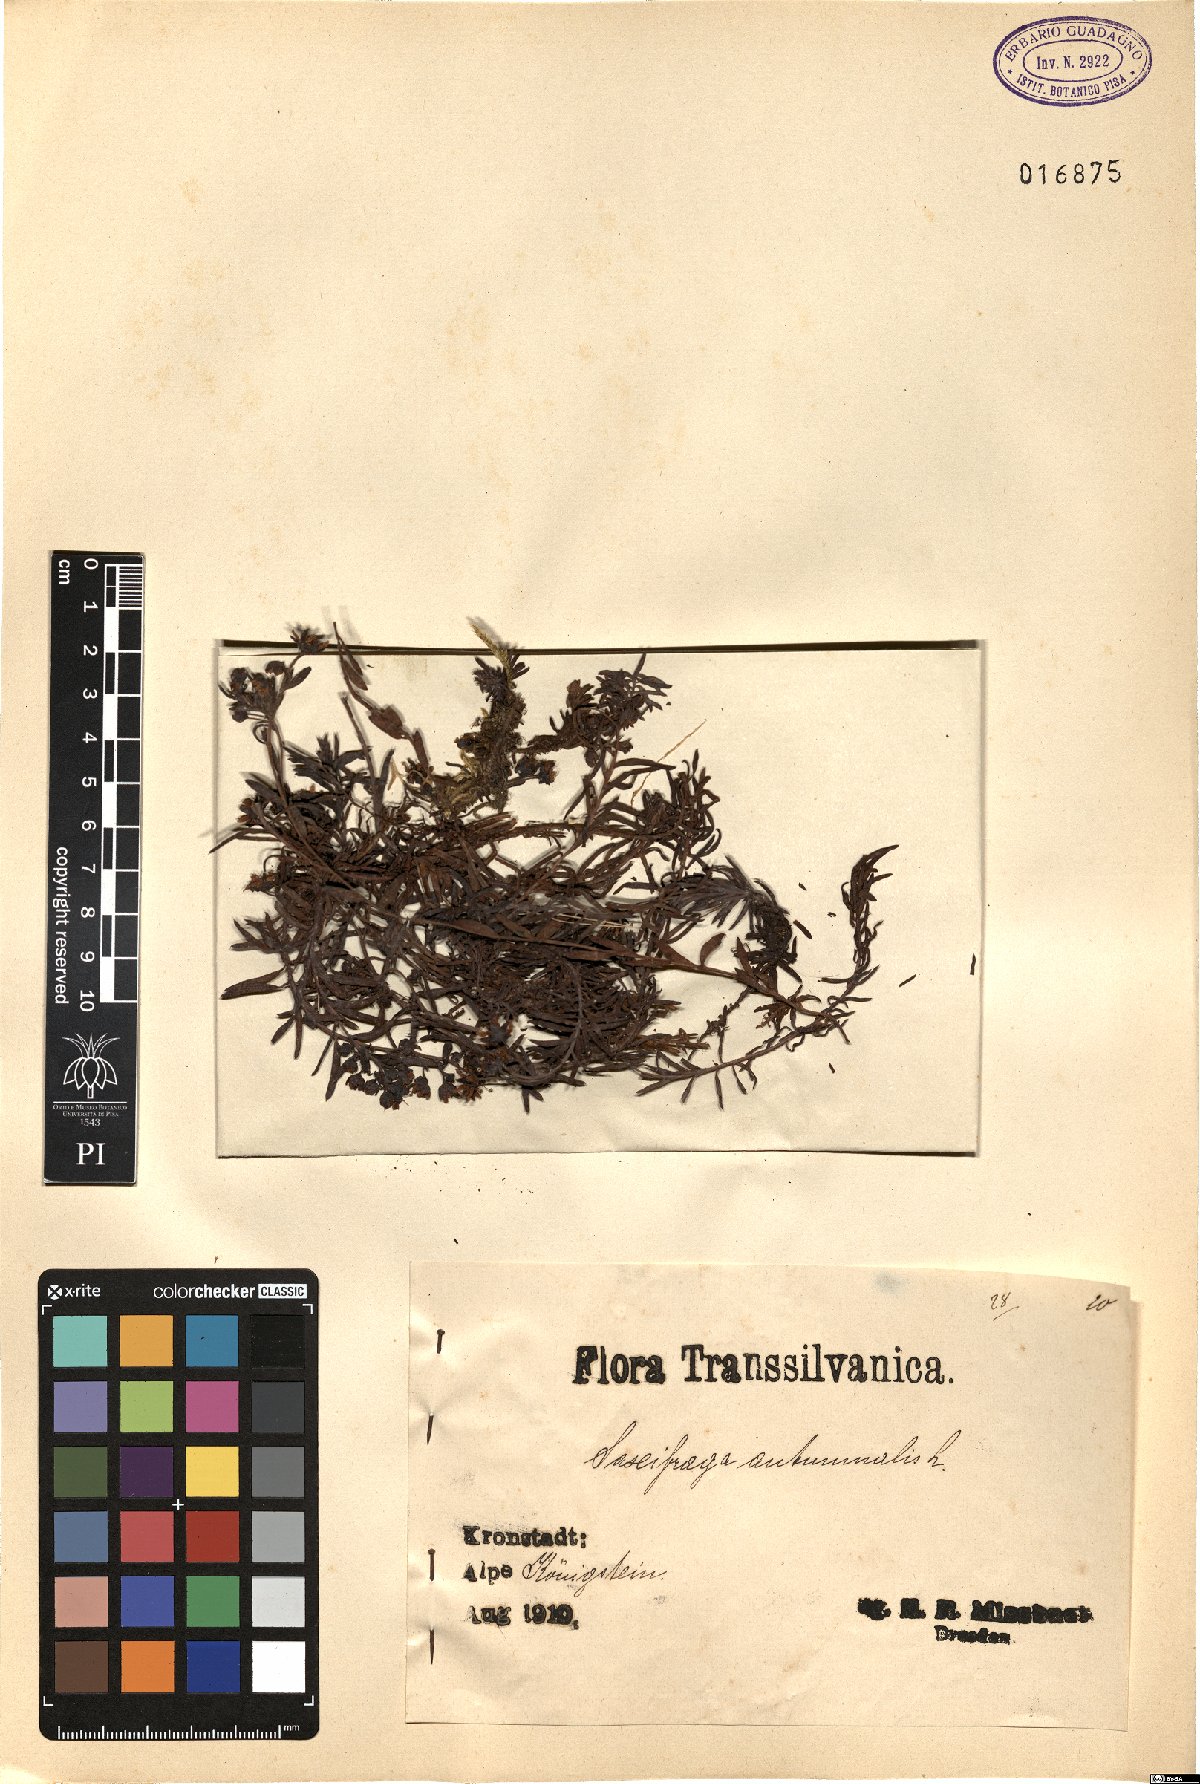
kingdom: Plantae
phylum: Tracheophyta
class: Magnoliopsida
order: Saxifragales
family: Saxifragaceae
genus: Saxifraga
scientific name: Saxifraga hirculus
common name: Yellow marsh saxifrage
